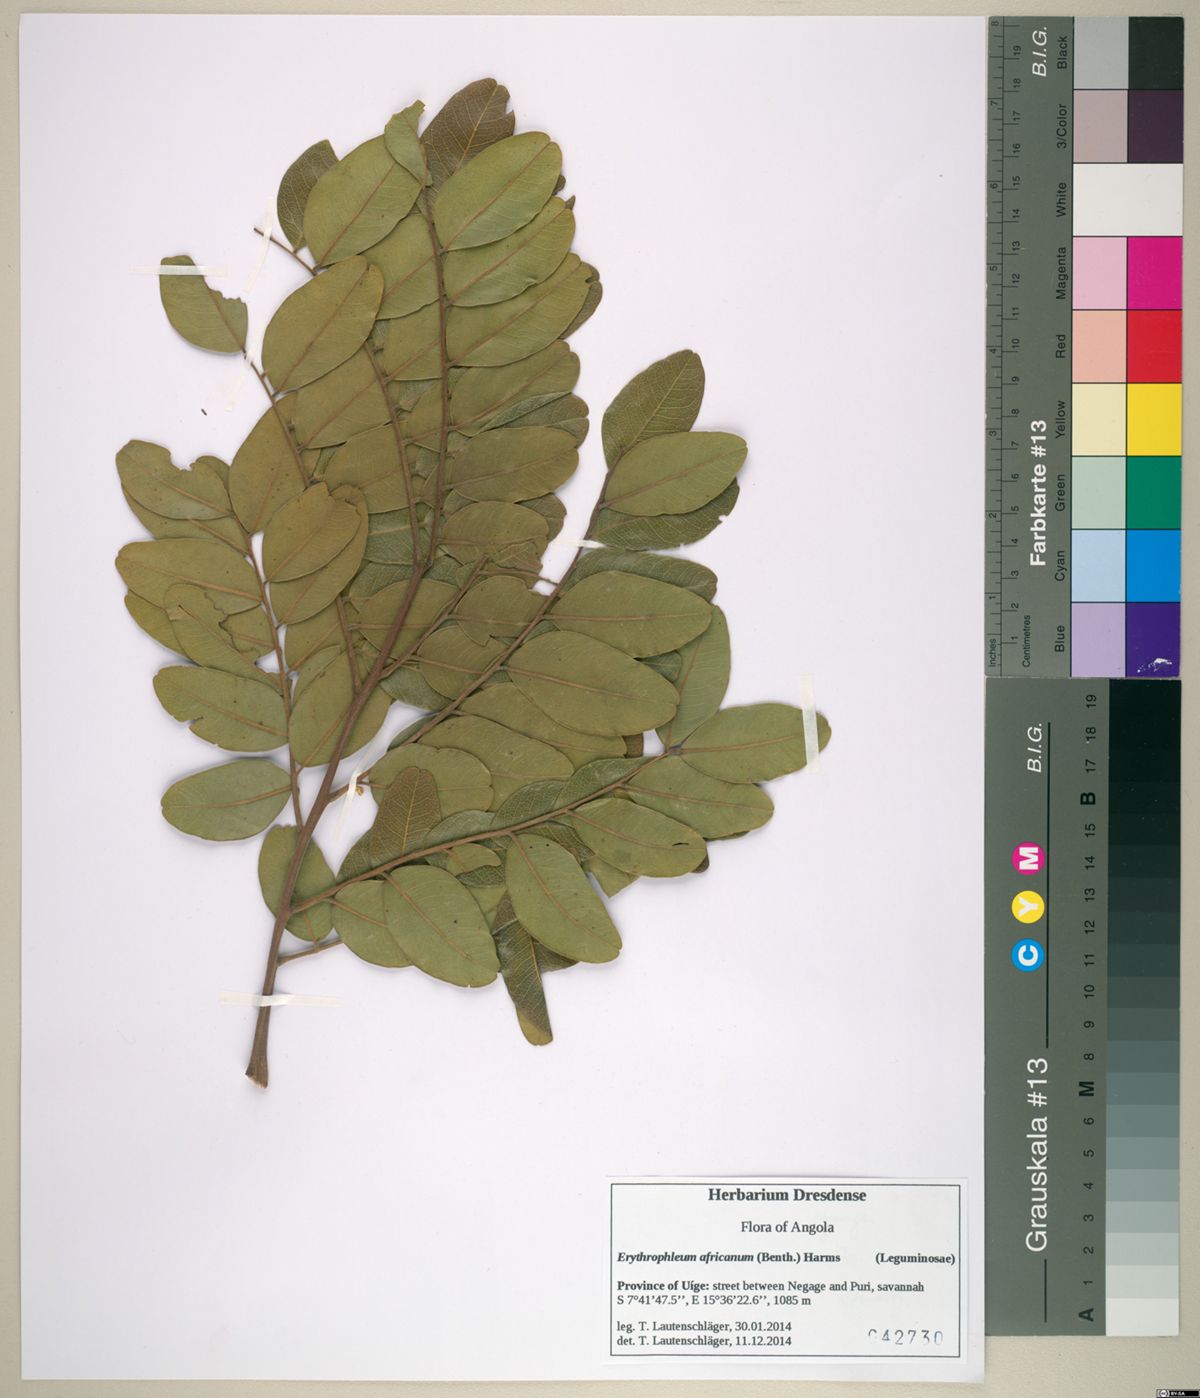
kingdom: Plantae
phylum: Tracheophyta
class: Magnoliopsida
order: Fabales
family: Fabaceae
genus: Erythrophleum
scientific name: Erythrophleum africanum
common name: African blackwood
